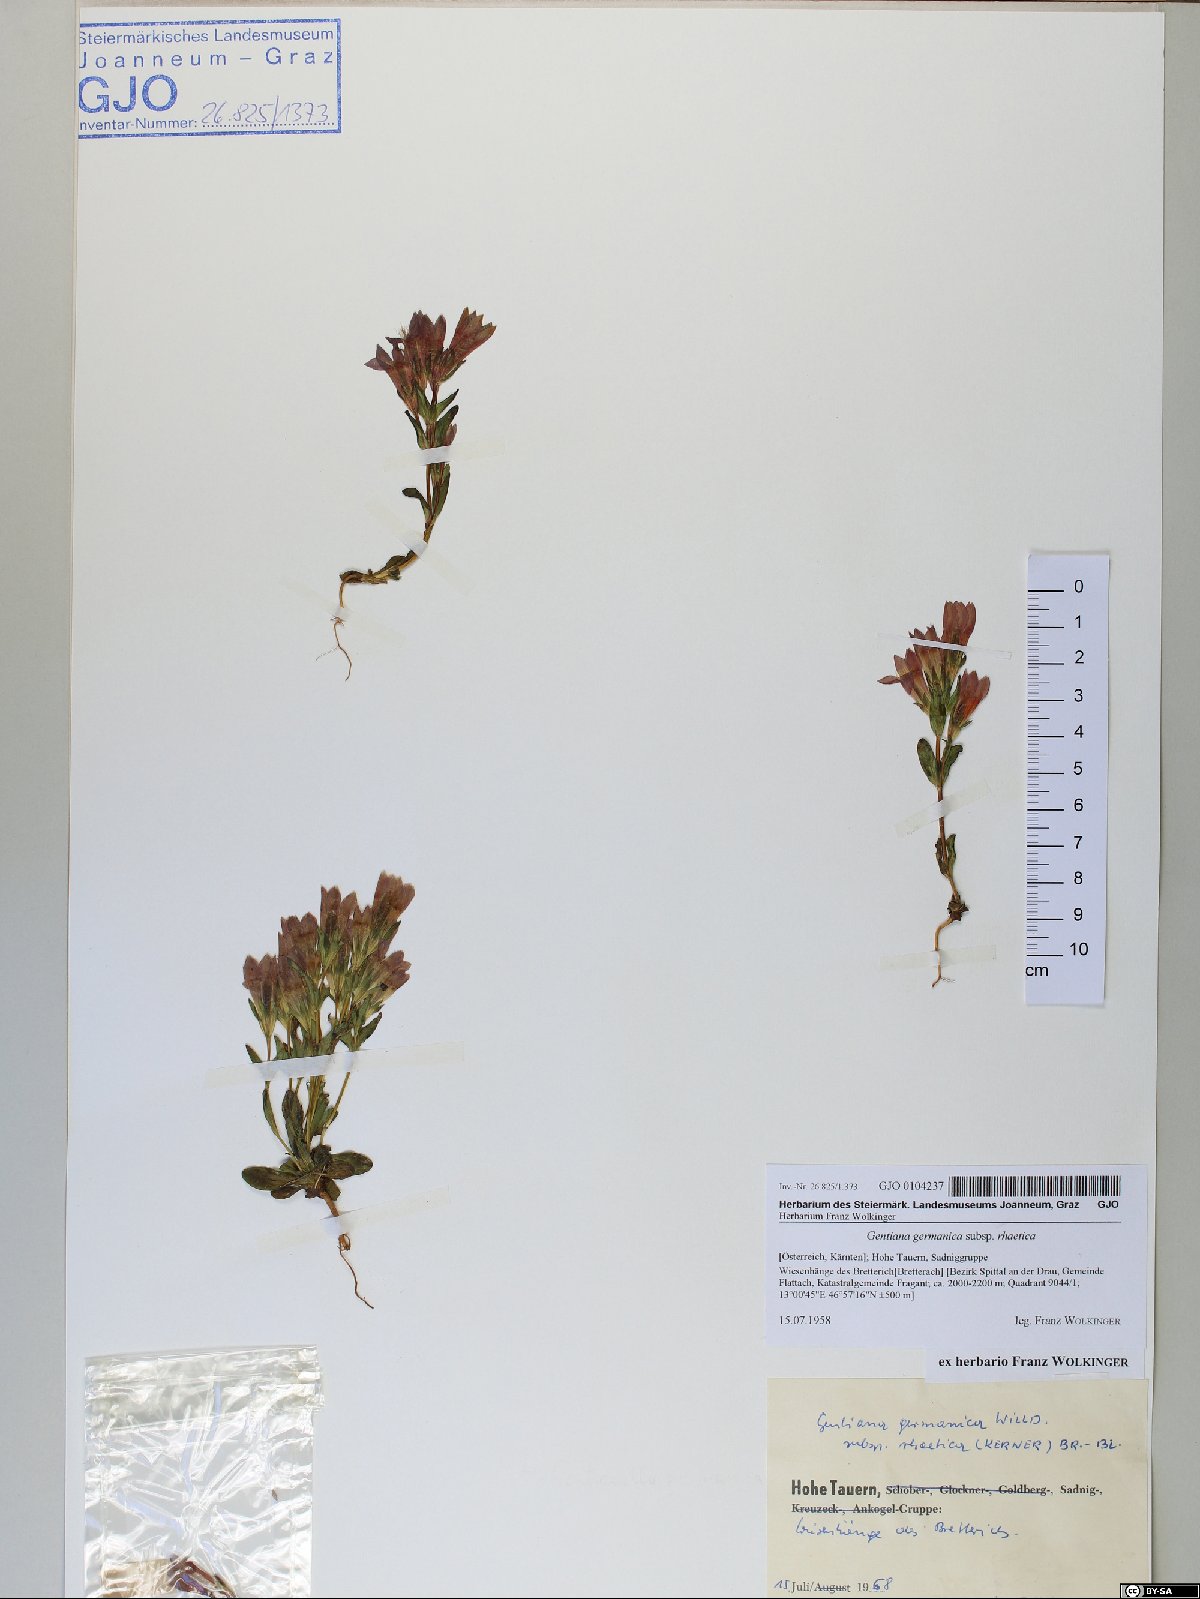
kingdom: Plantae
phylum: Tracheophyta
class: Magnoliopsida
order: Gentianales
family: Gentianaceae
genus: Gentianella
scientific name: Gentianella rhaetica
